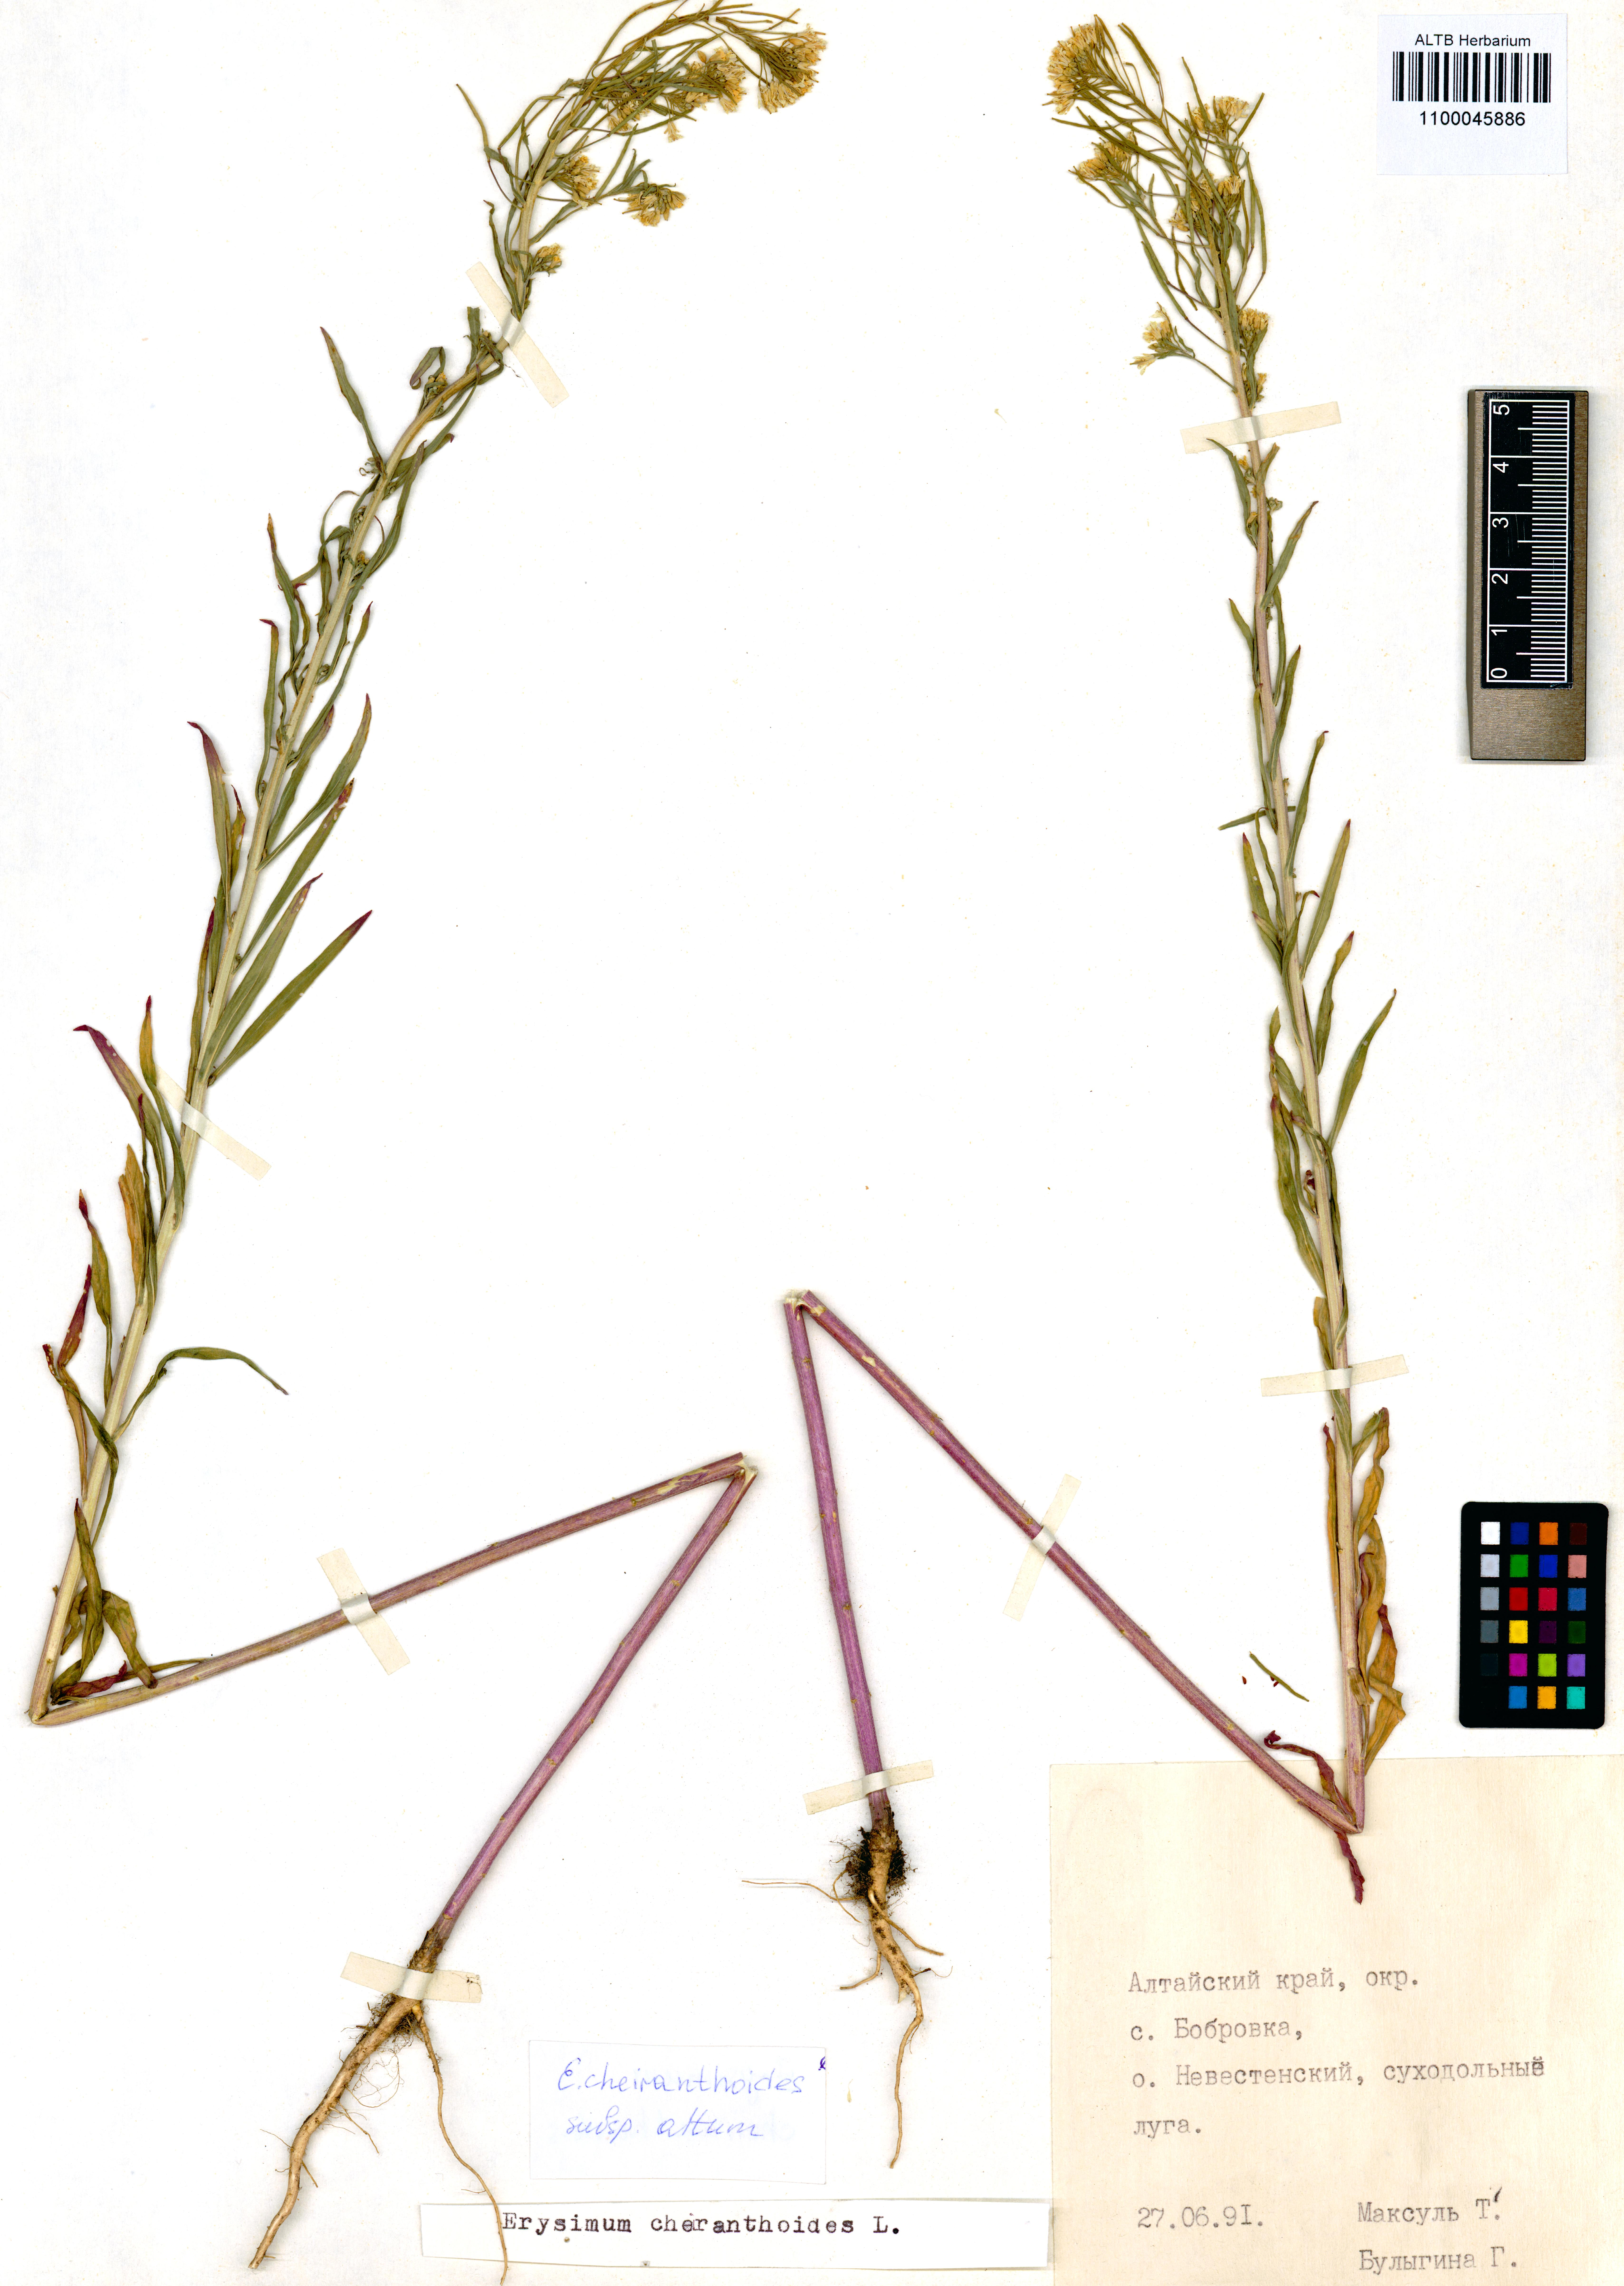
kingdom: Plantae
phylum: Tracheophyta
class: Magnoliopsida
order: Brassicales
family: Brassicaceae
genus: Erysimum
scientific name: Erysimum cheiranthoides
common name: Treacle mustard
